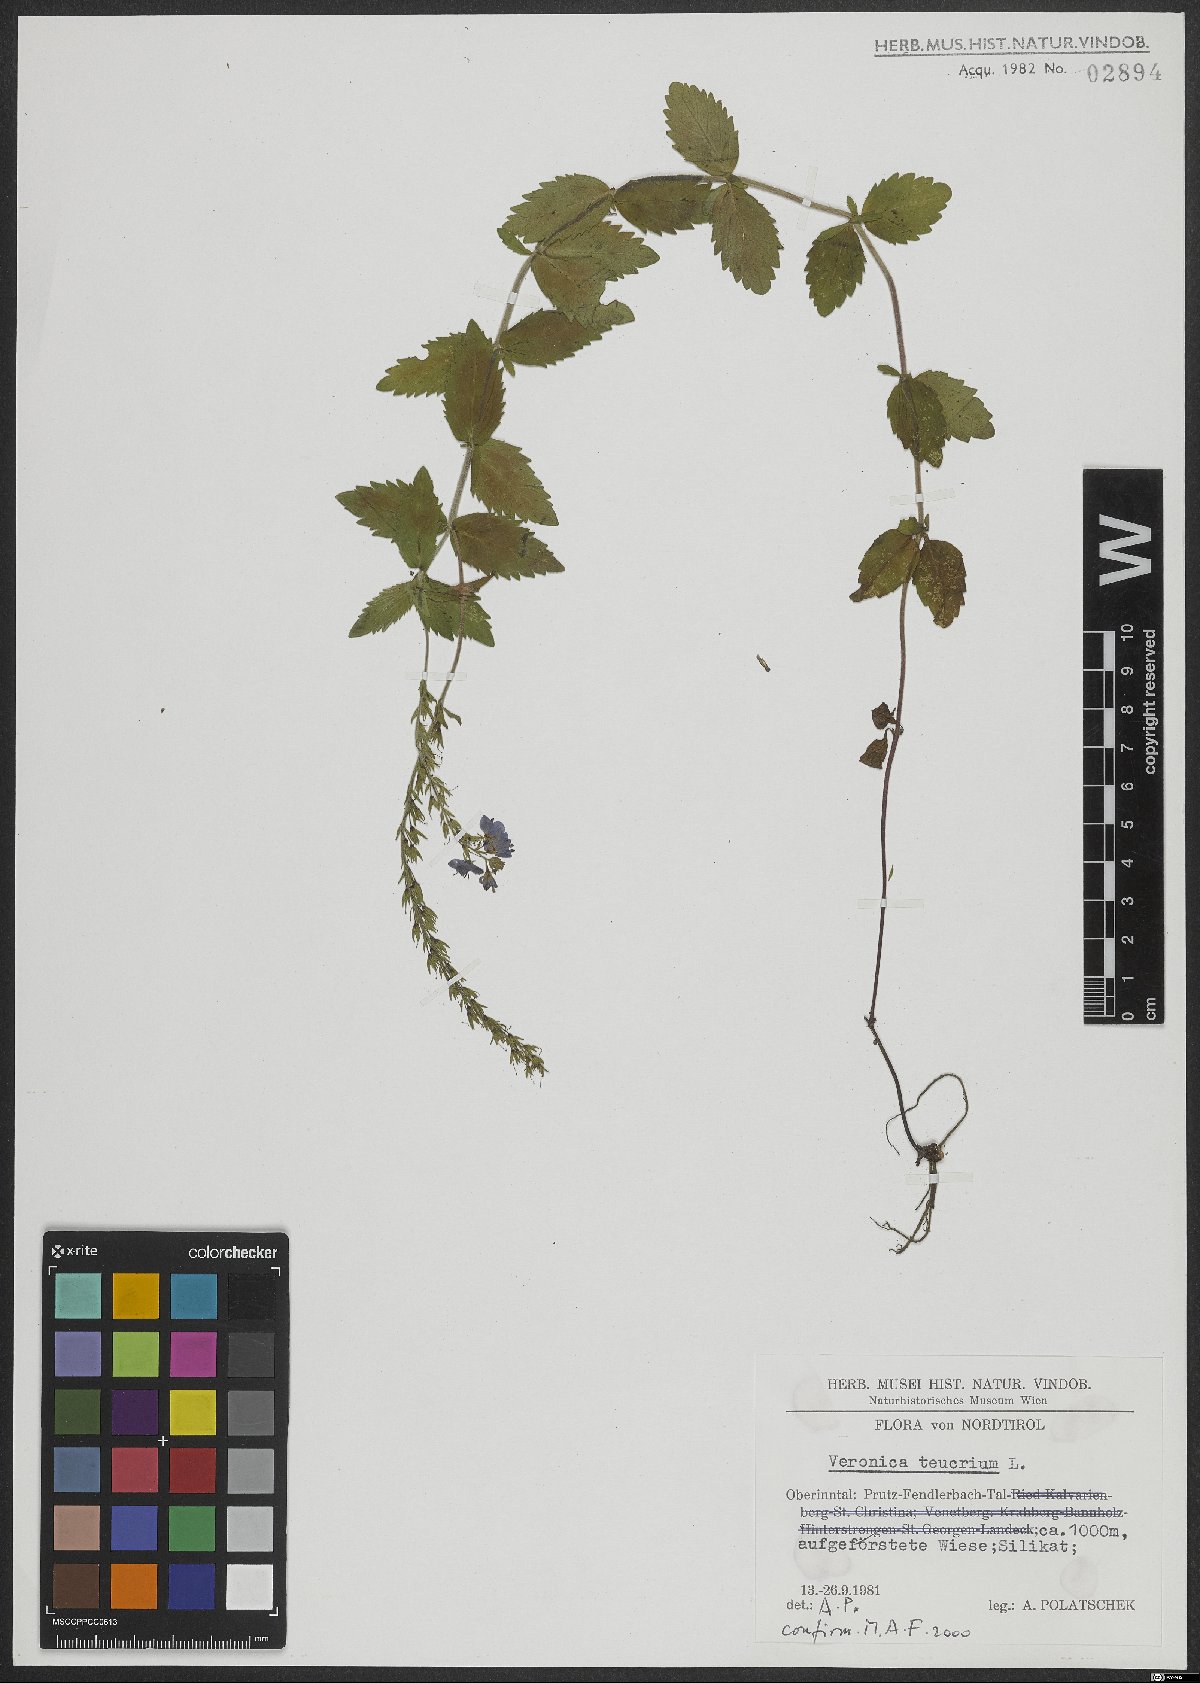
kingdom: Plantae
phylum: Tracheophyta
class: Magnoliopsida
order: Lamiales
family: Plantaginaceae
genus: Veronica
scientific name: Veronica teucrium
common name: Large speedwell
